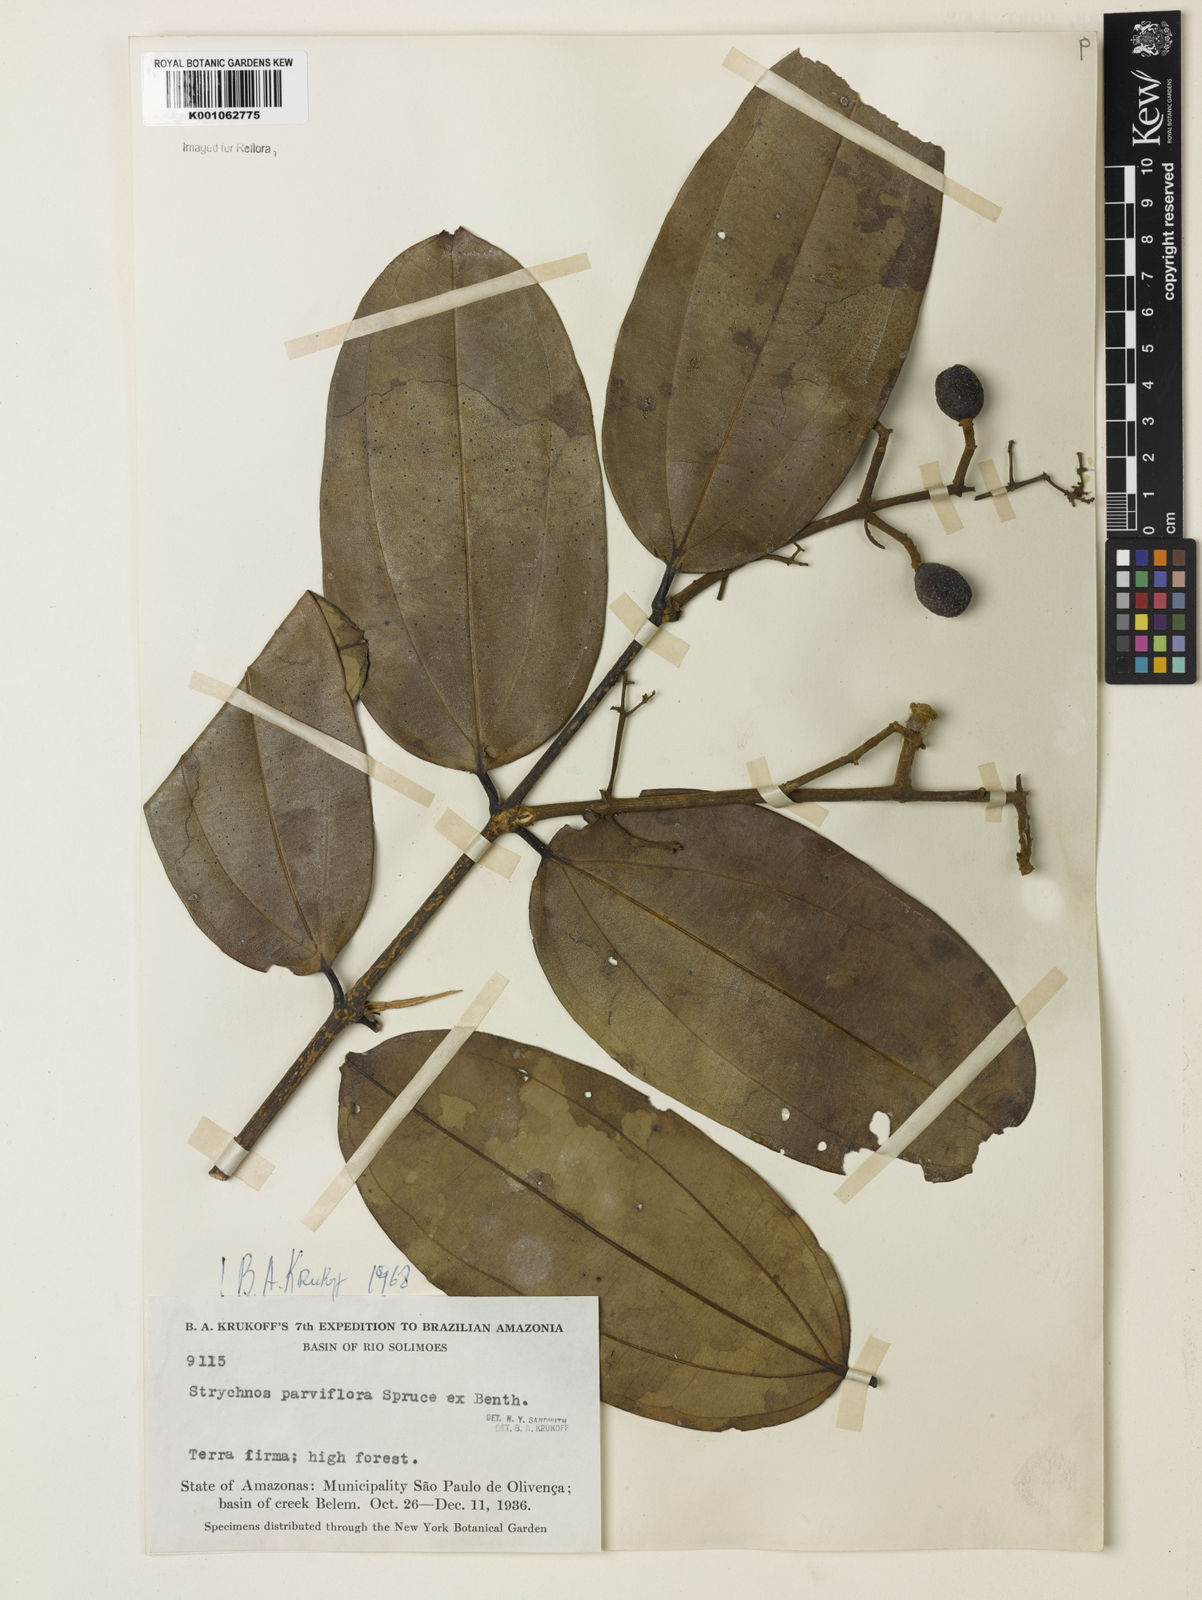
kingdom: Plantae
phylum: Tracheophyta
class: Magnoliopsida
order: Gentianales
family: Loganiaceae
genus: Strychnos
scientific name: Strychnos parviflora
